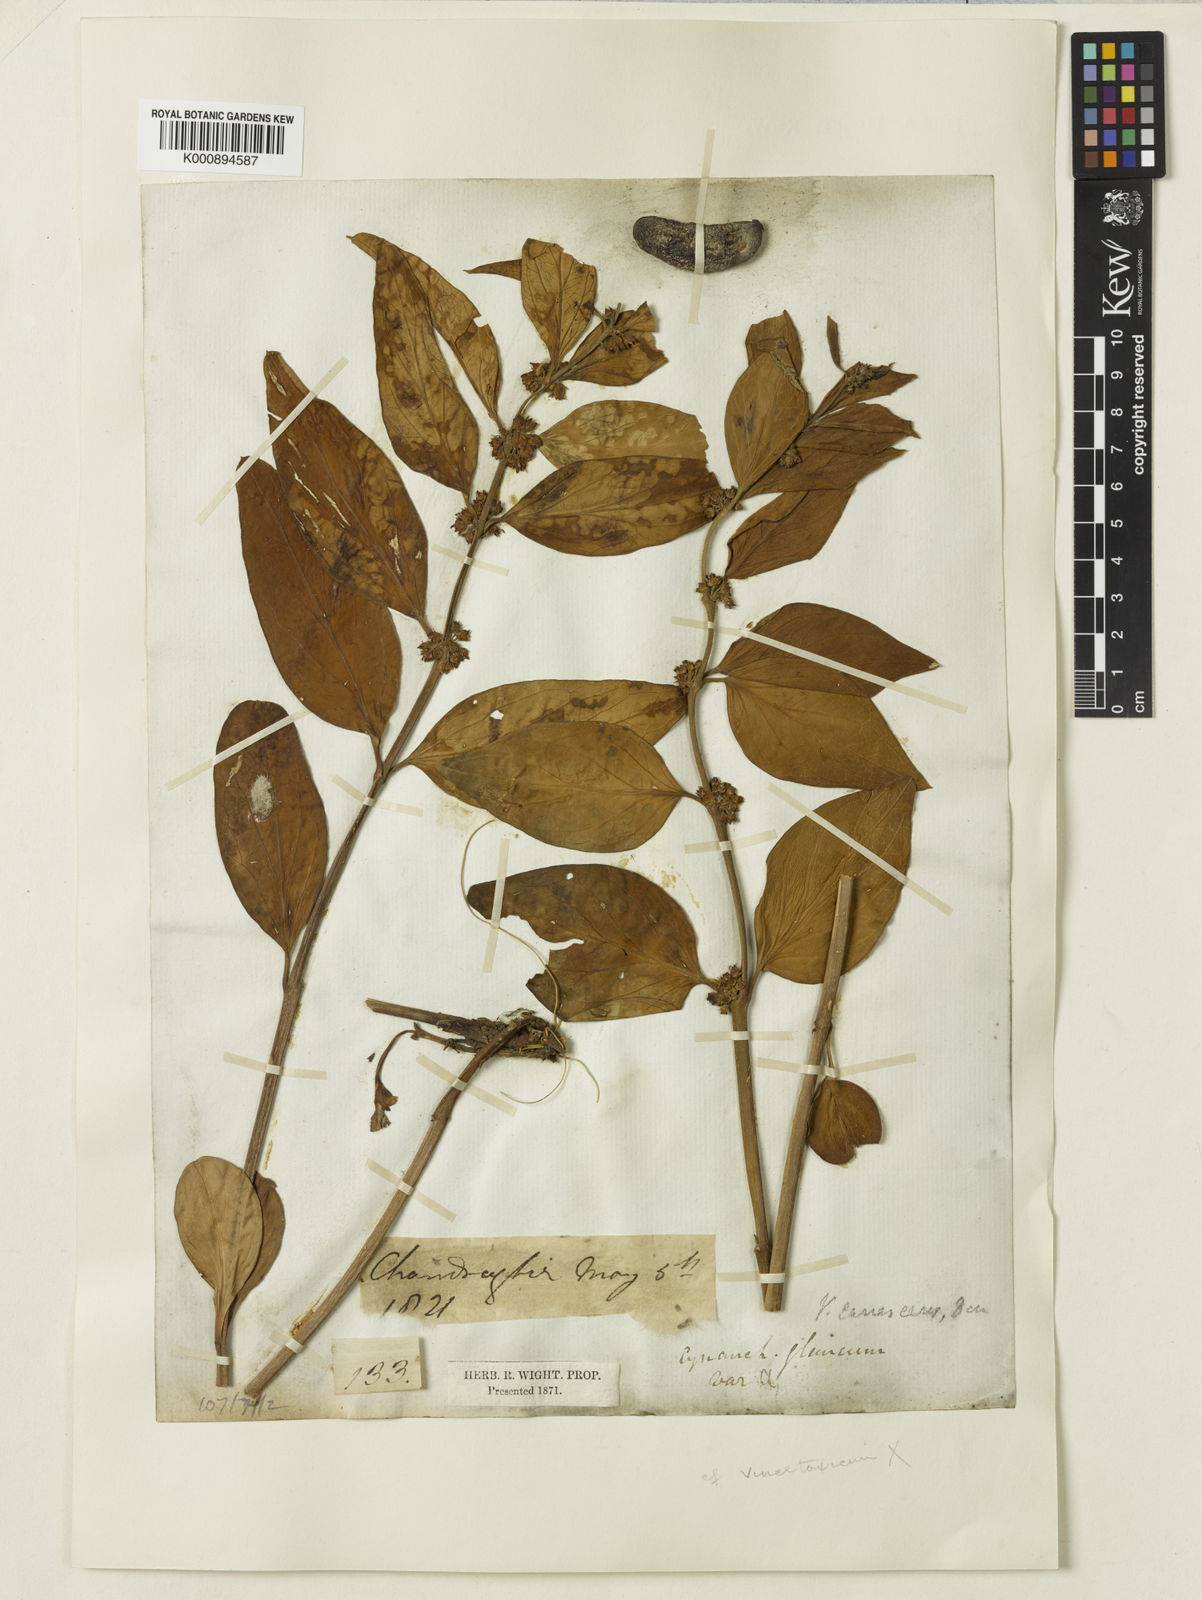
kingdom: Plantae
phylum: Tracheophyta
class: Magnoliopsida
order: Gentianales
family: Apocynaceae
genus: Vincetoxicum
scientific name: Vincetoxicum canescens
